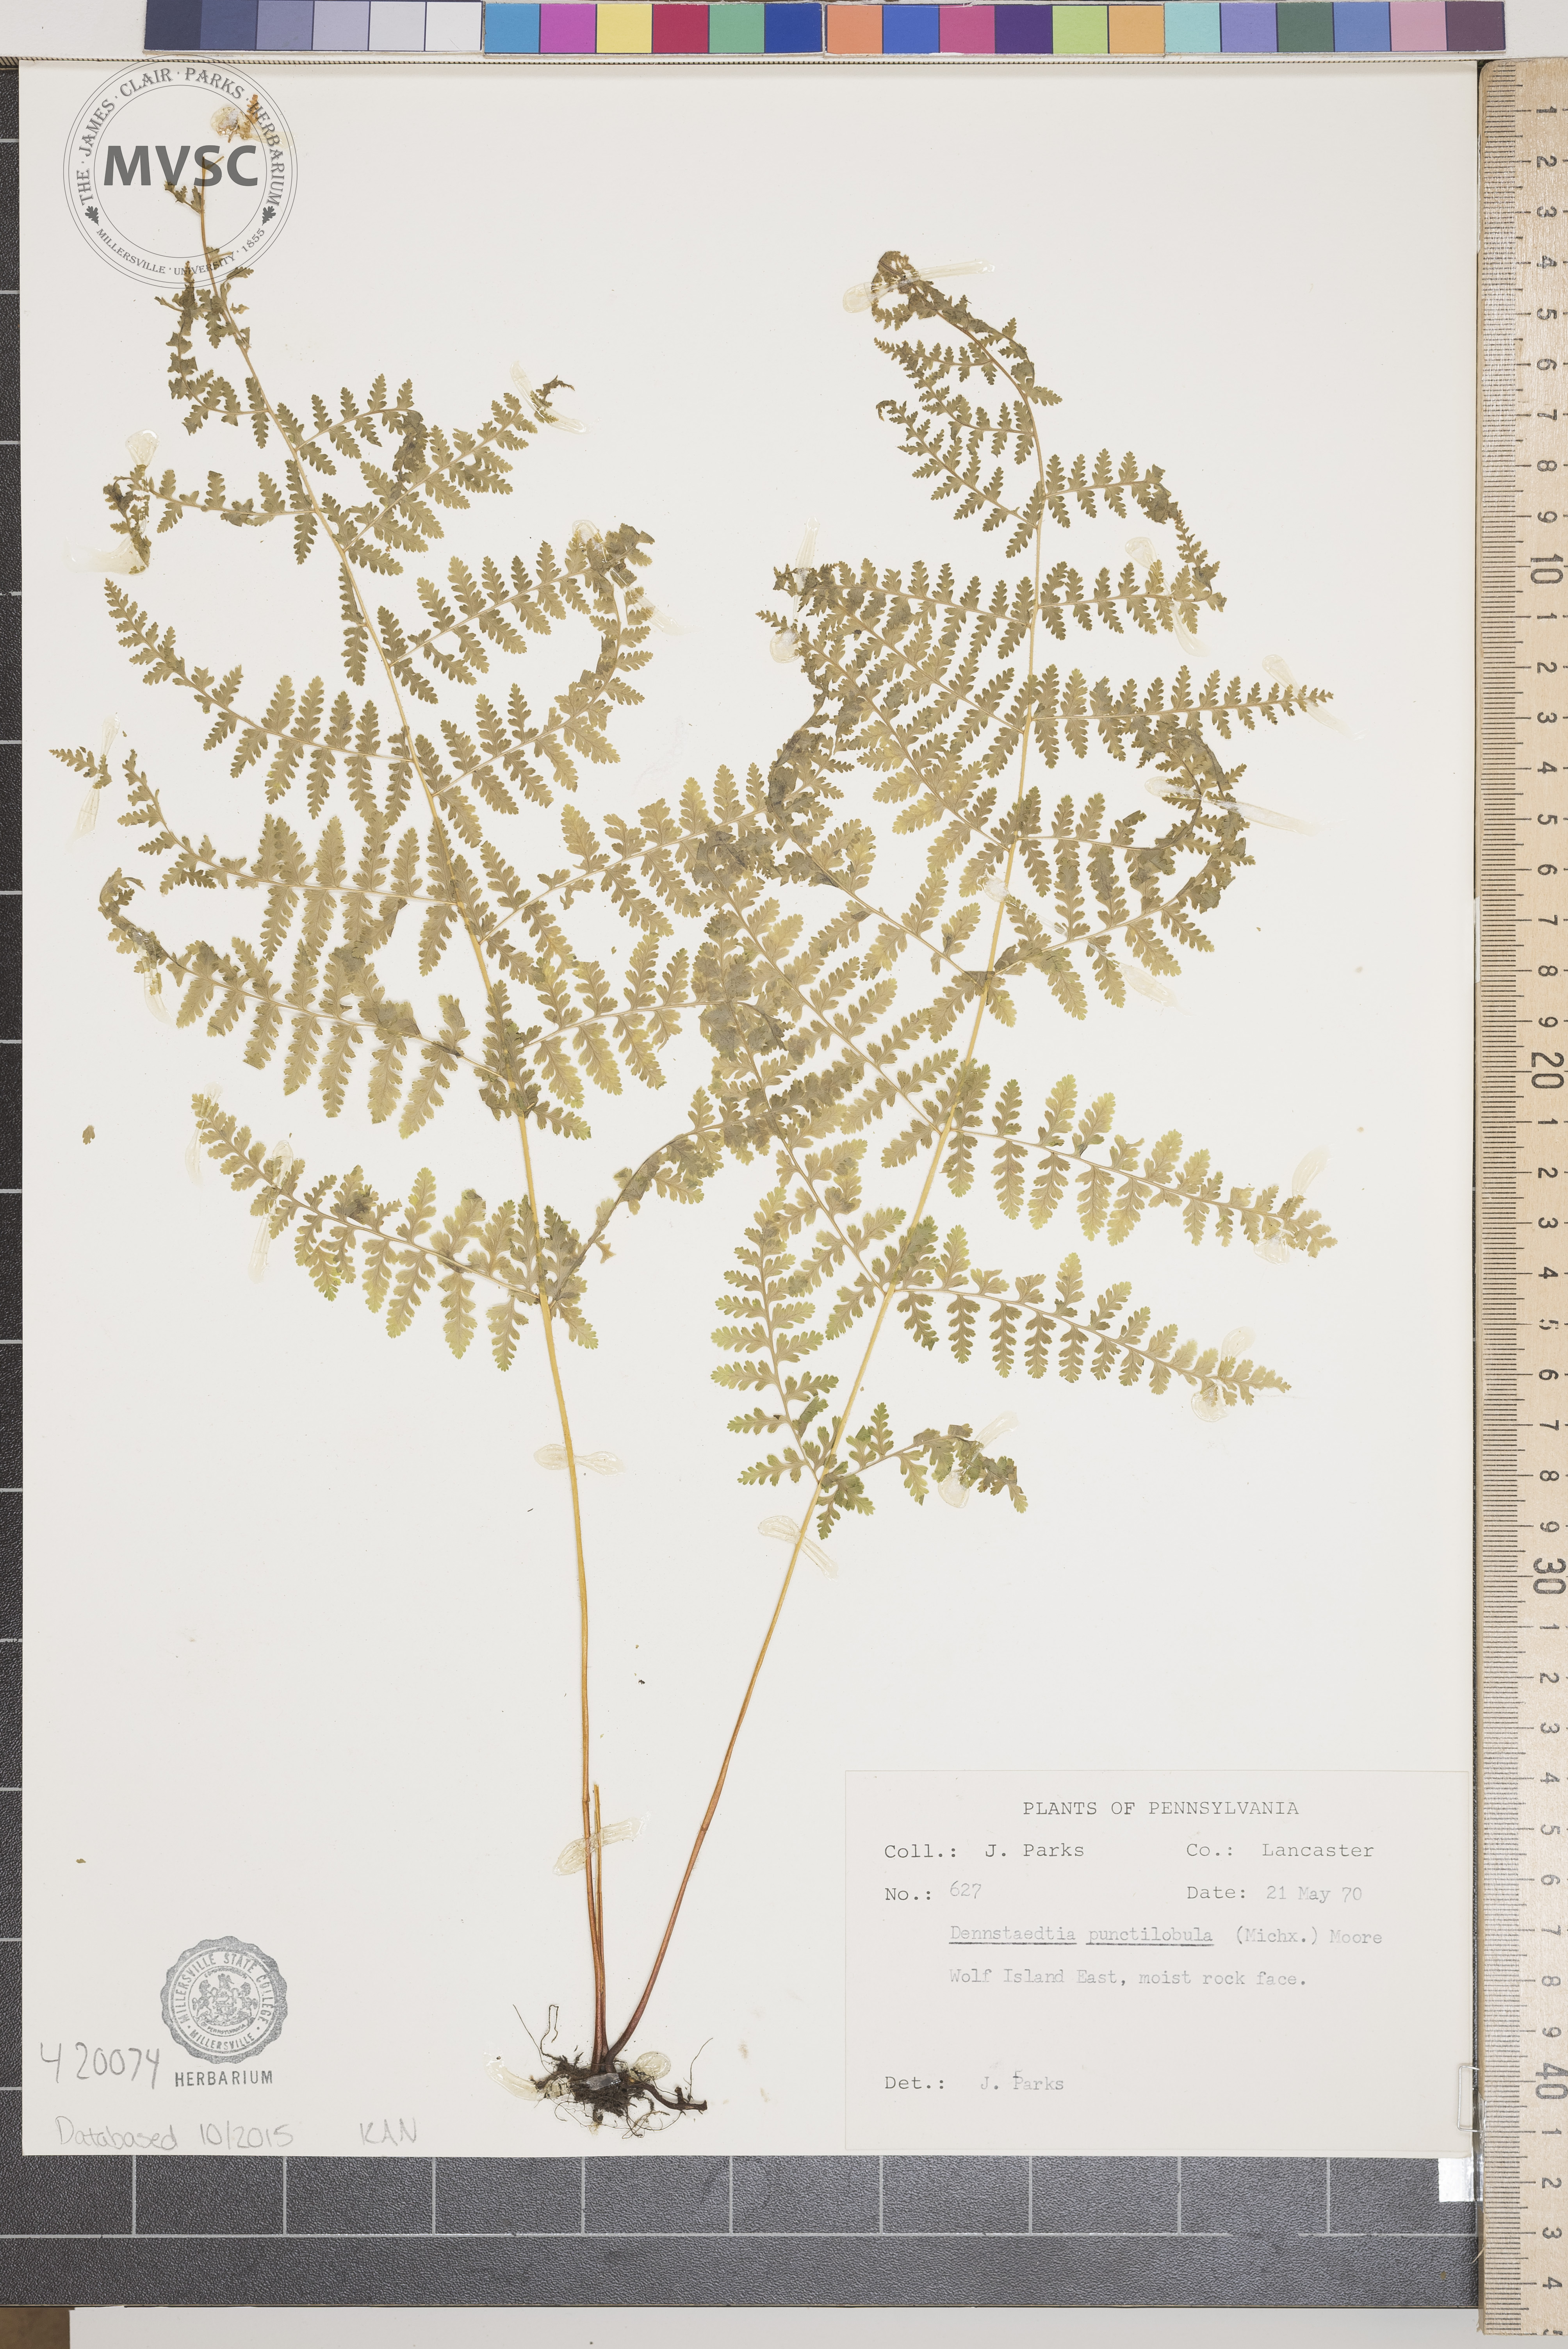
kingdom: Plantae
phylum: Tracheophyta
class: Polypodiopsida
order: Polypodiales
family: Dennstaedtiaceae
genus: Sitobolium
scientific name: Sitobolium punctilobum
